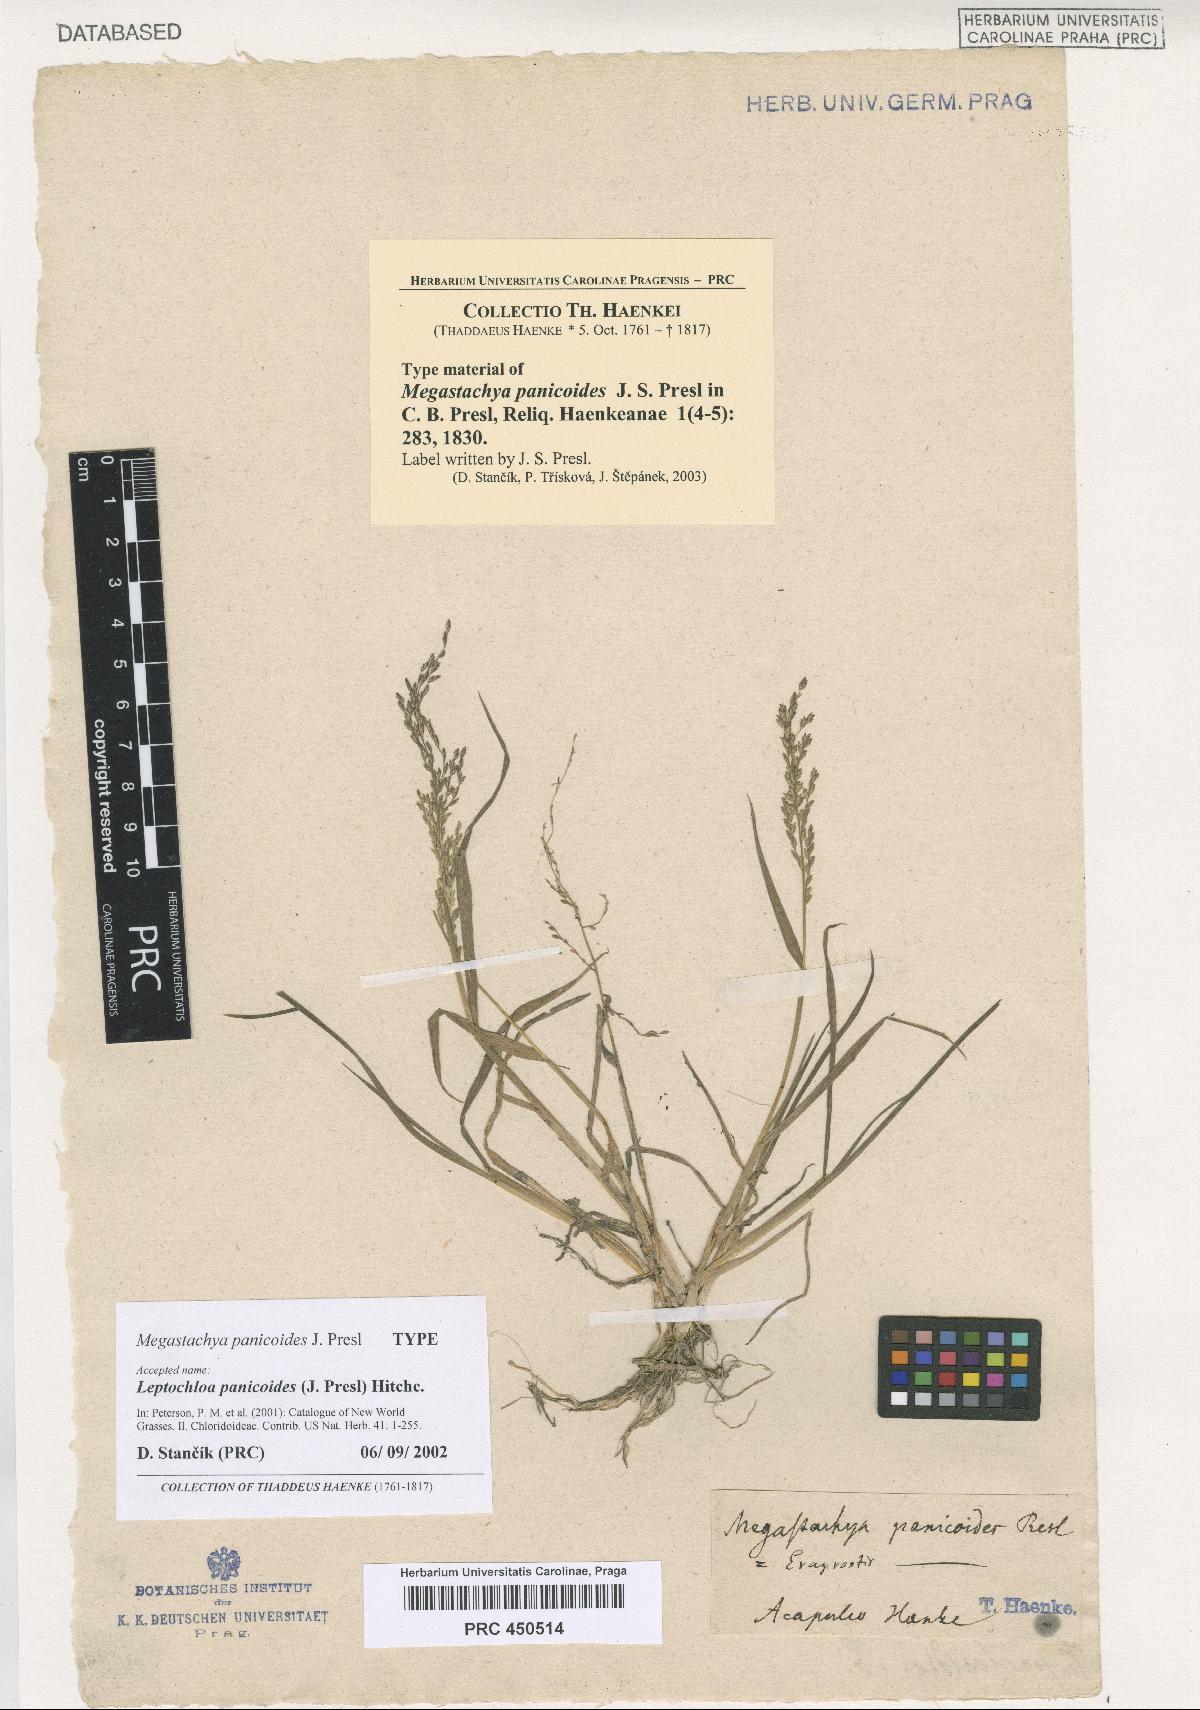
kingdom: Plantae
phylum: Tracheophyta
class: Liliopsida
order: Poales
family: Poaceae
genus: Leptochloa
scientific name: Leptochloa panicoides
